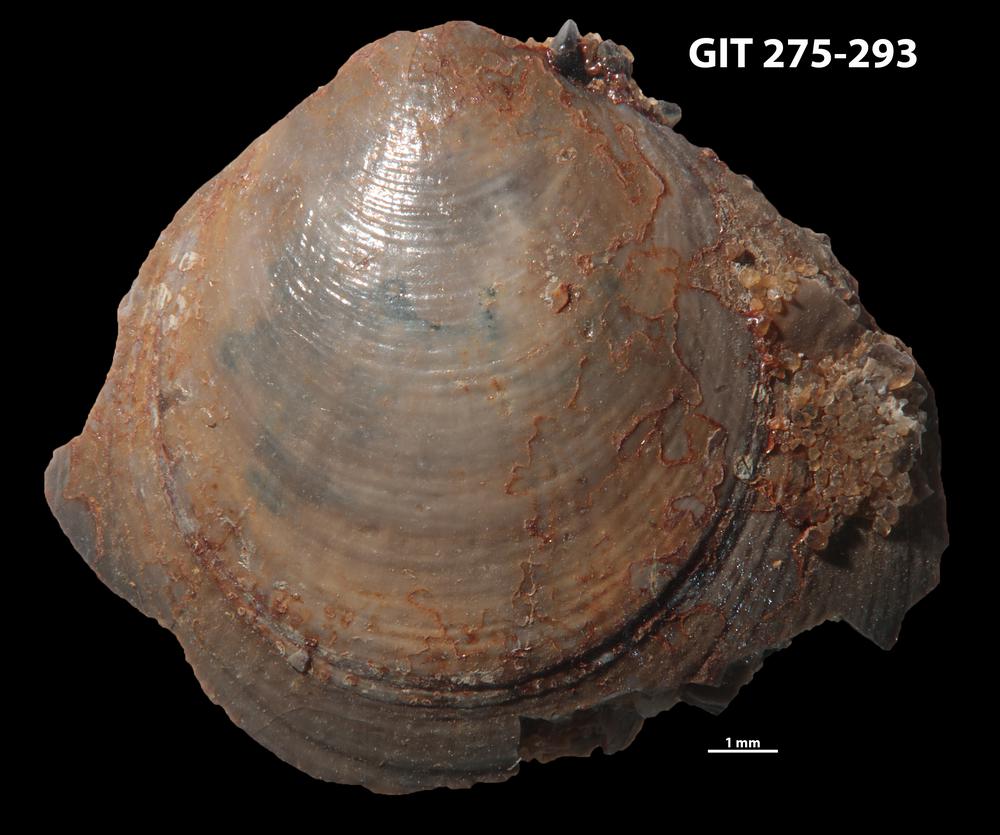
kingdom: Animalia
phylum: Brachiopoda
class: Lingulata
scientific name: Lingulata
